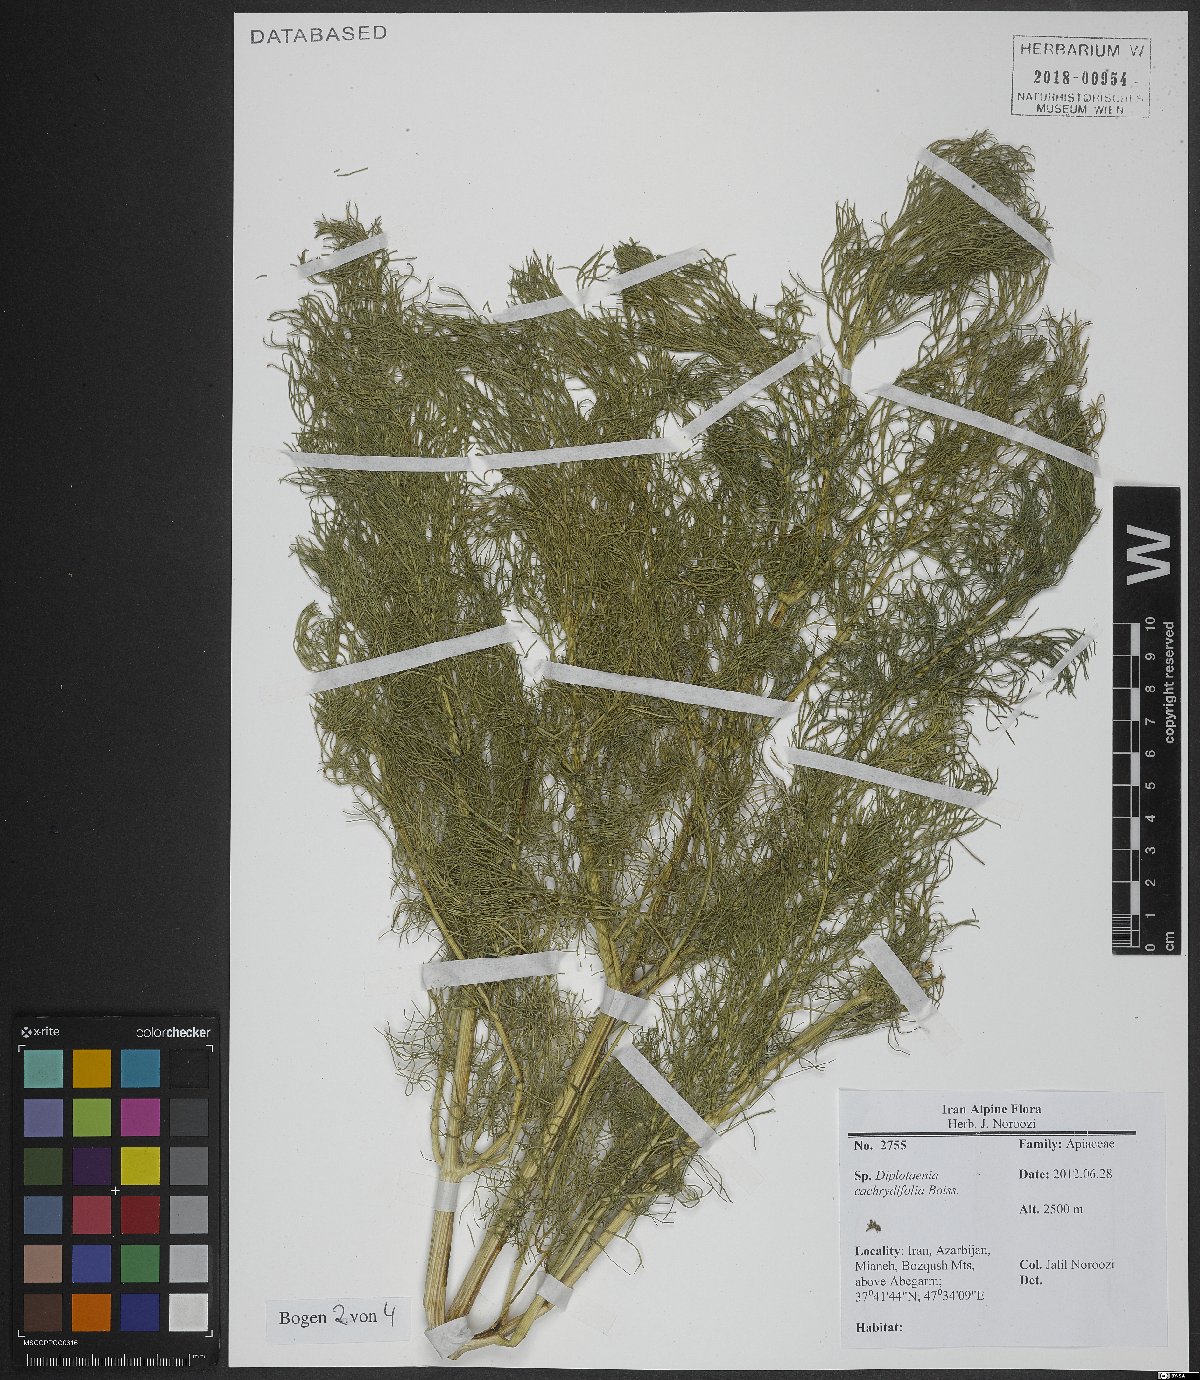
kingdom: Plantae
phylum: Tracheophyta
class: Magnoliopsida
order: Apiales
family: Apiaceae
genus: Diplotaenia
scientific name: Diplotaenia cachrydifolia
